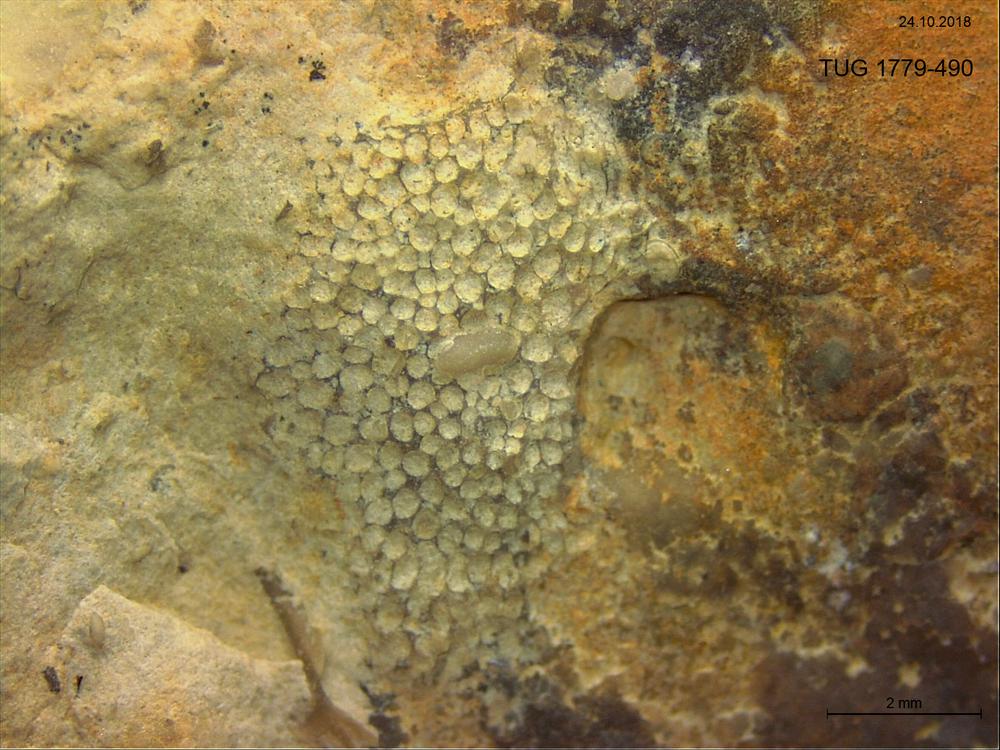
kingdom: Animalia
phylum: Bryozoa
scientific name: Bryozoa
